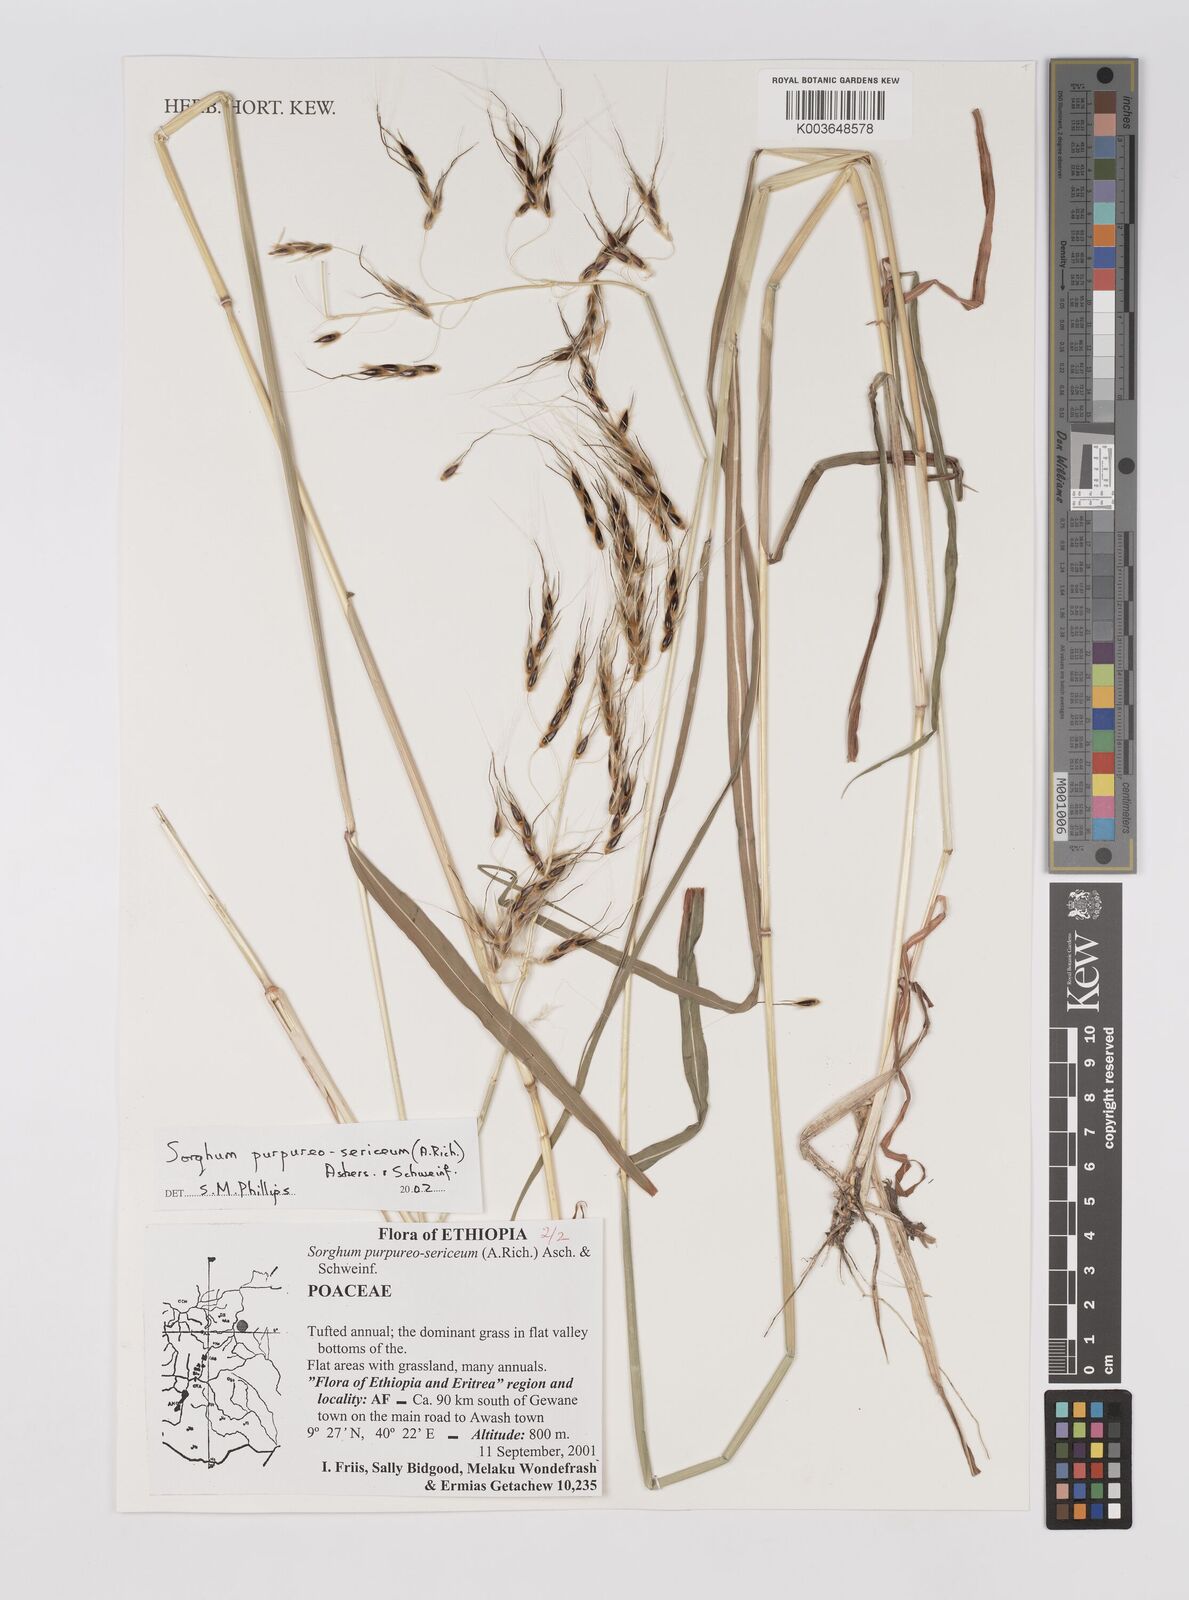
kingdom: Plantae
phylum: Tracheophyta
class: Liliopsida
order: Poales
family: Poaceae
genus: Sarga
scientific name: Sarga purpureosericea
